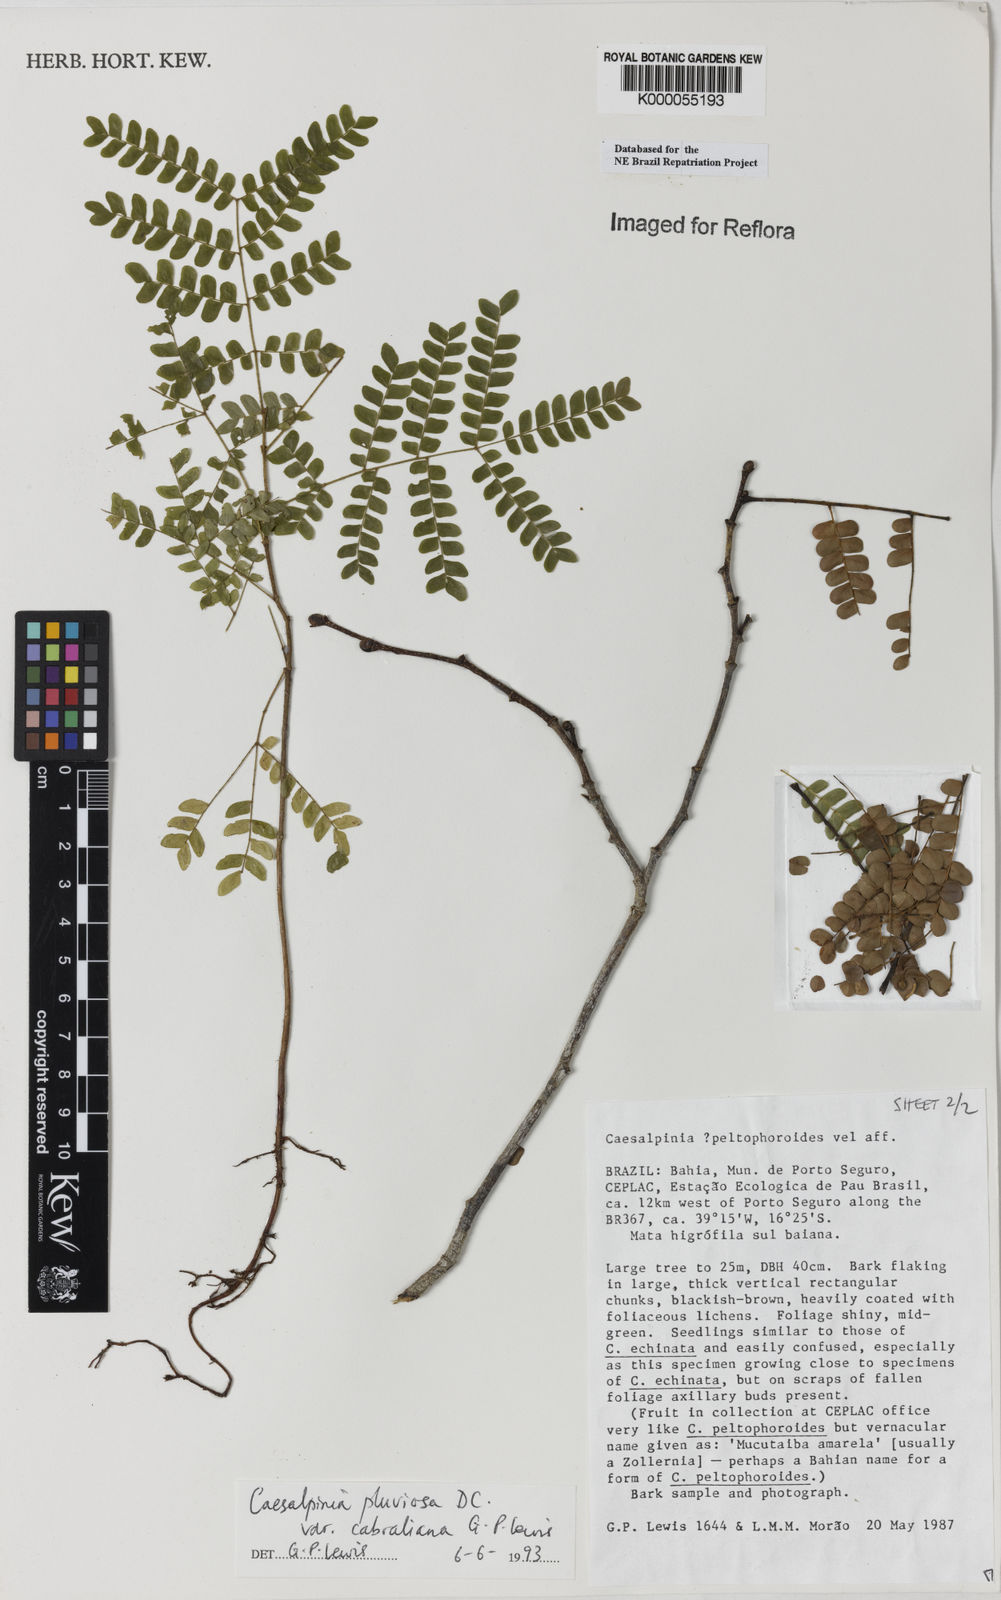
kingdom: Plantae
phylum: Tracheophyta
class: Magnoliopsida
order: Fabales
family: Fabaceae
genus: Cenostigma
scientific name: Cenostigma pluviosum
